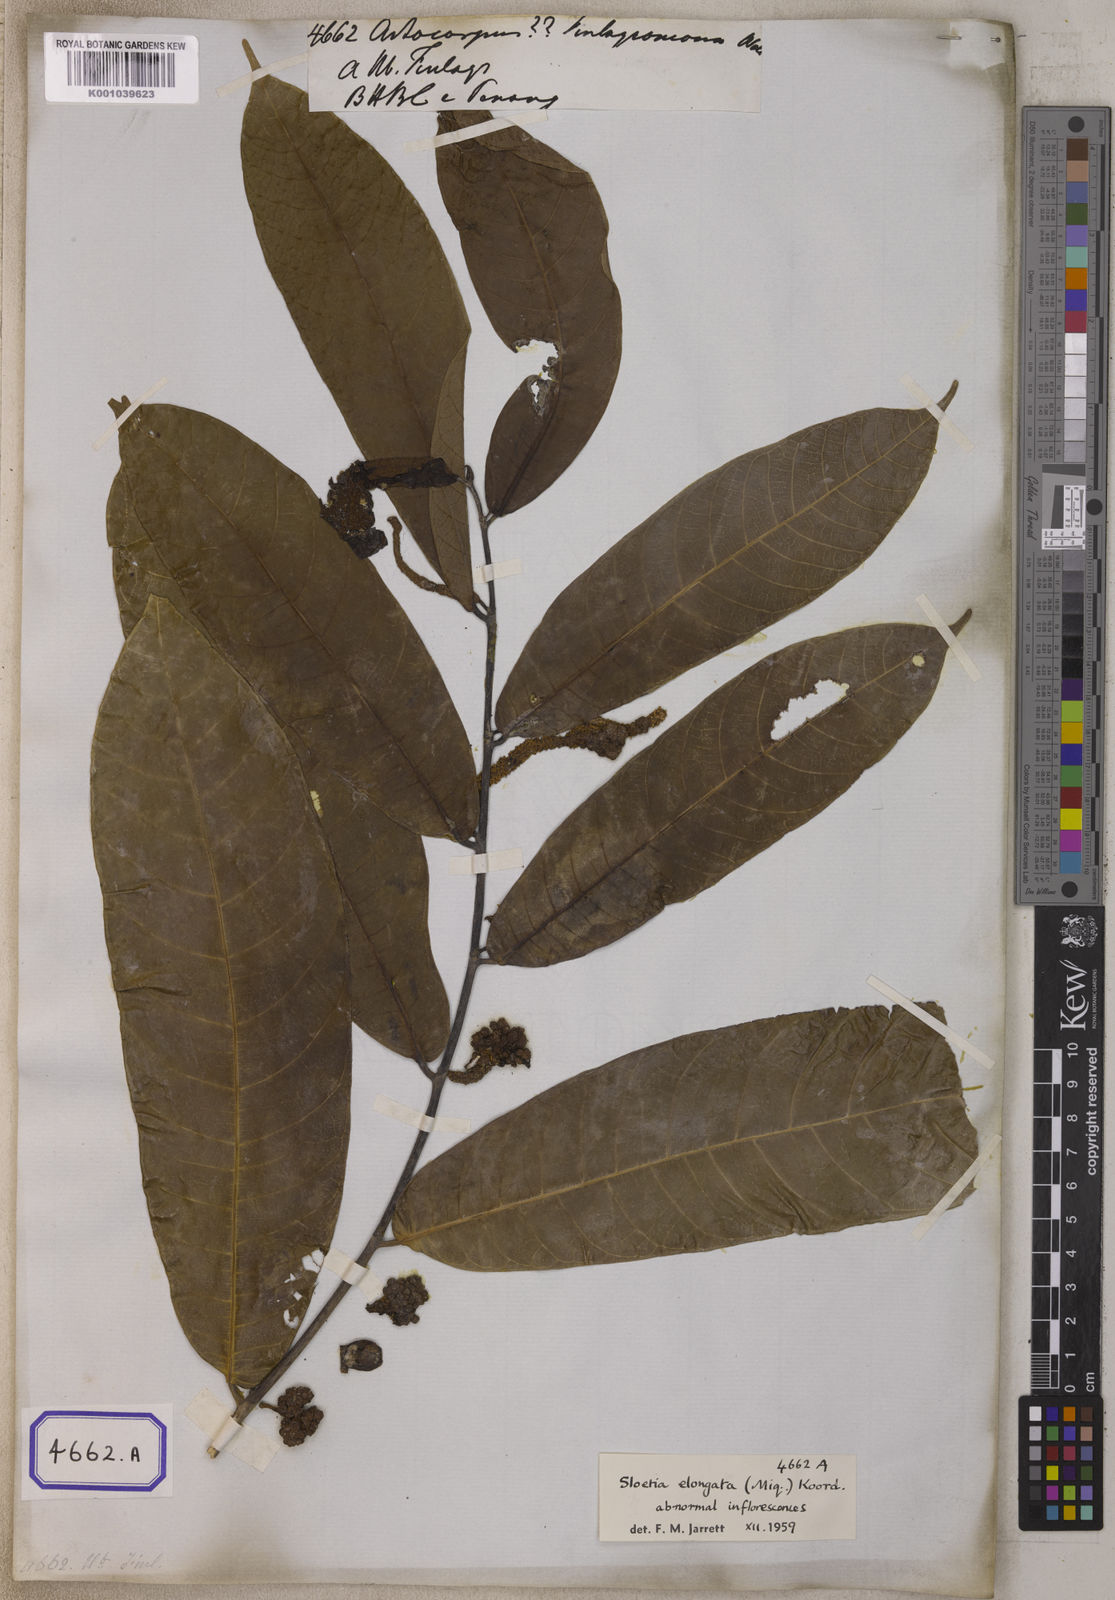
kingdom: Plantae
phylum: Tracheophyta
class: Magnoliopsida
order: Rosales
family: Moraceae
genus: Sloetia
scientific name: Sloetia elongata
